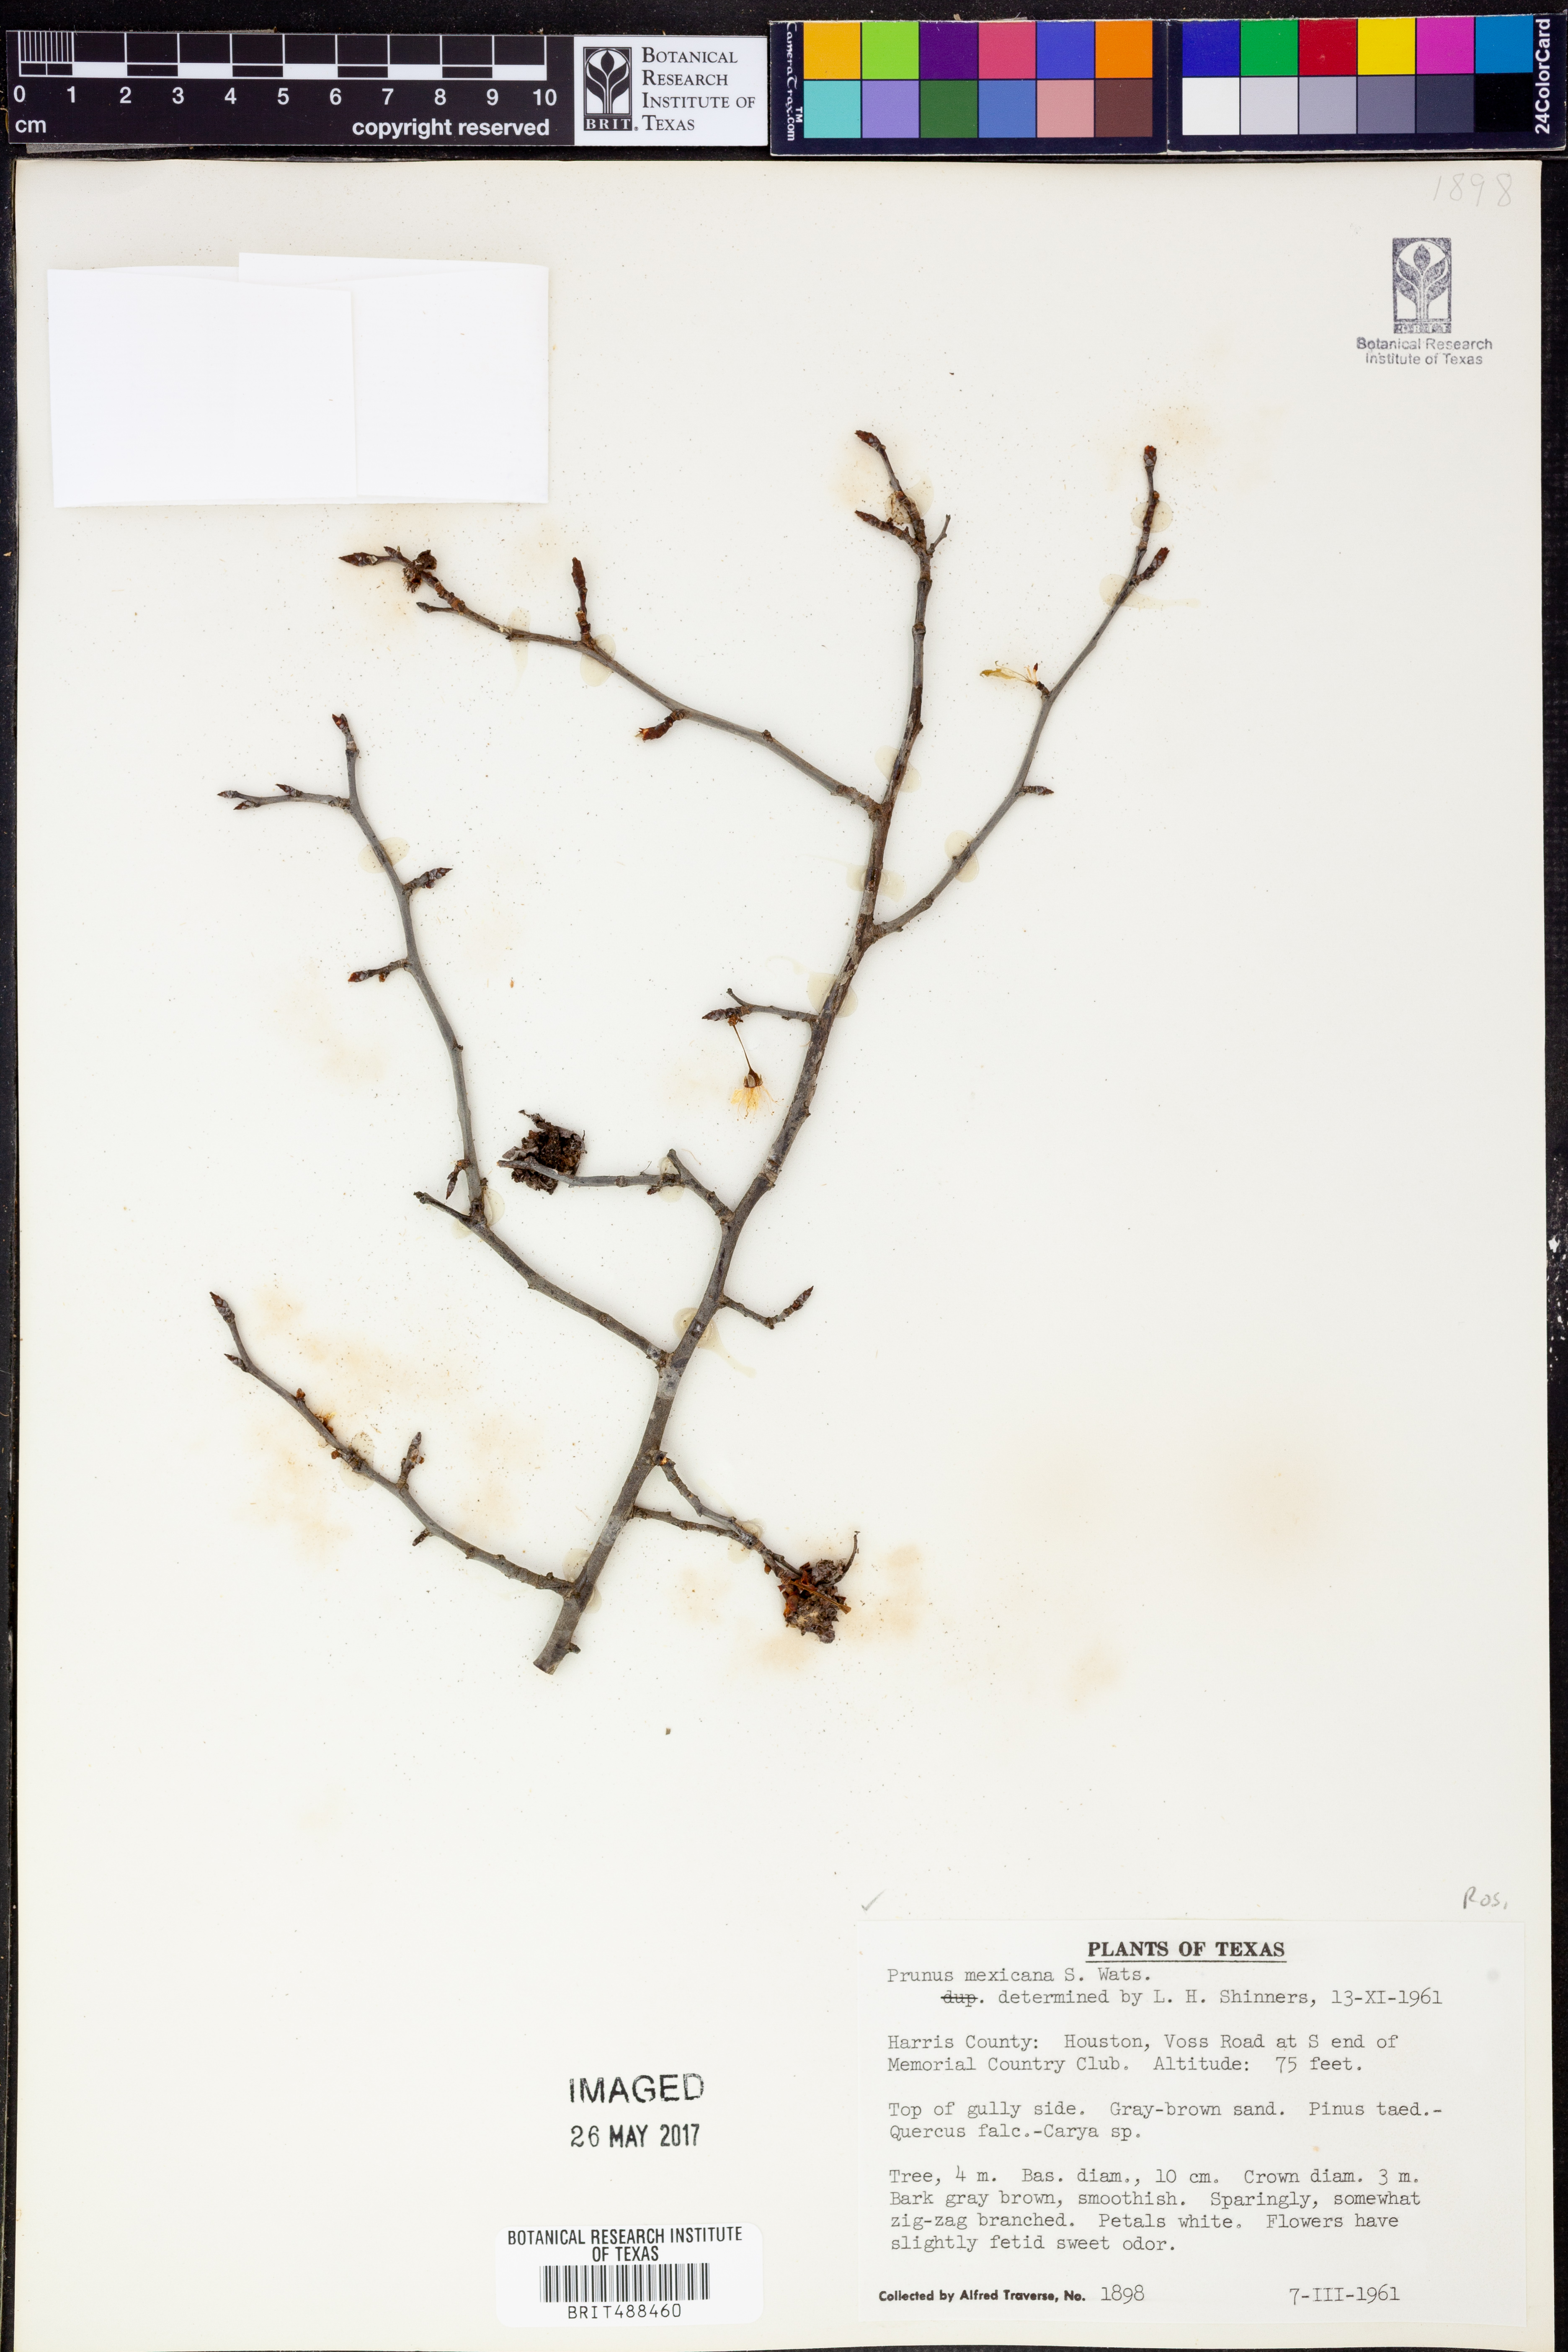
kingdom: Plantae
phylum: Tracheophyta
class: Magnoliopsida
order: Rosales
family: Rosaceae
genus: Prunus
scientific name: Prunus mexicana
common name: Mexican plum
